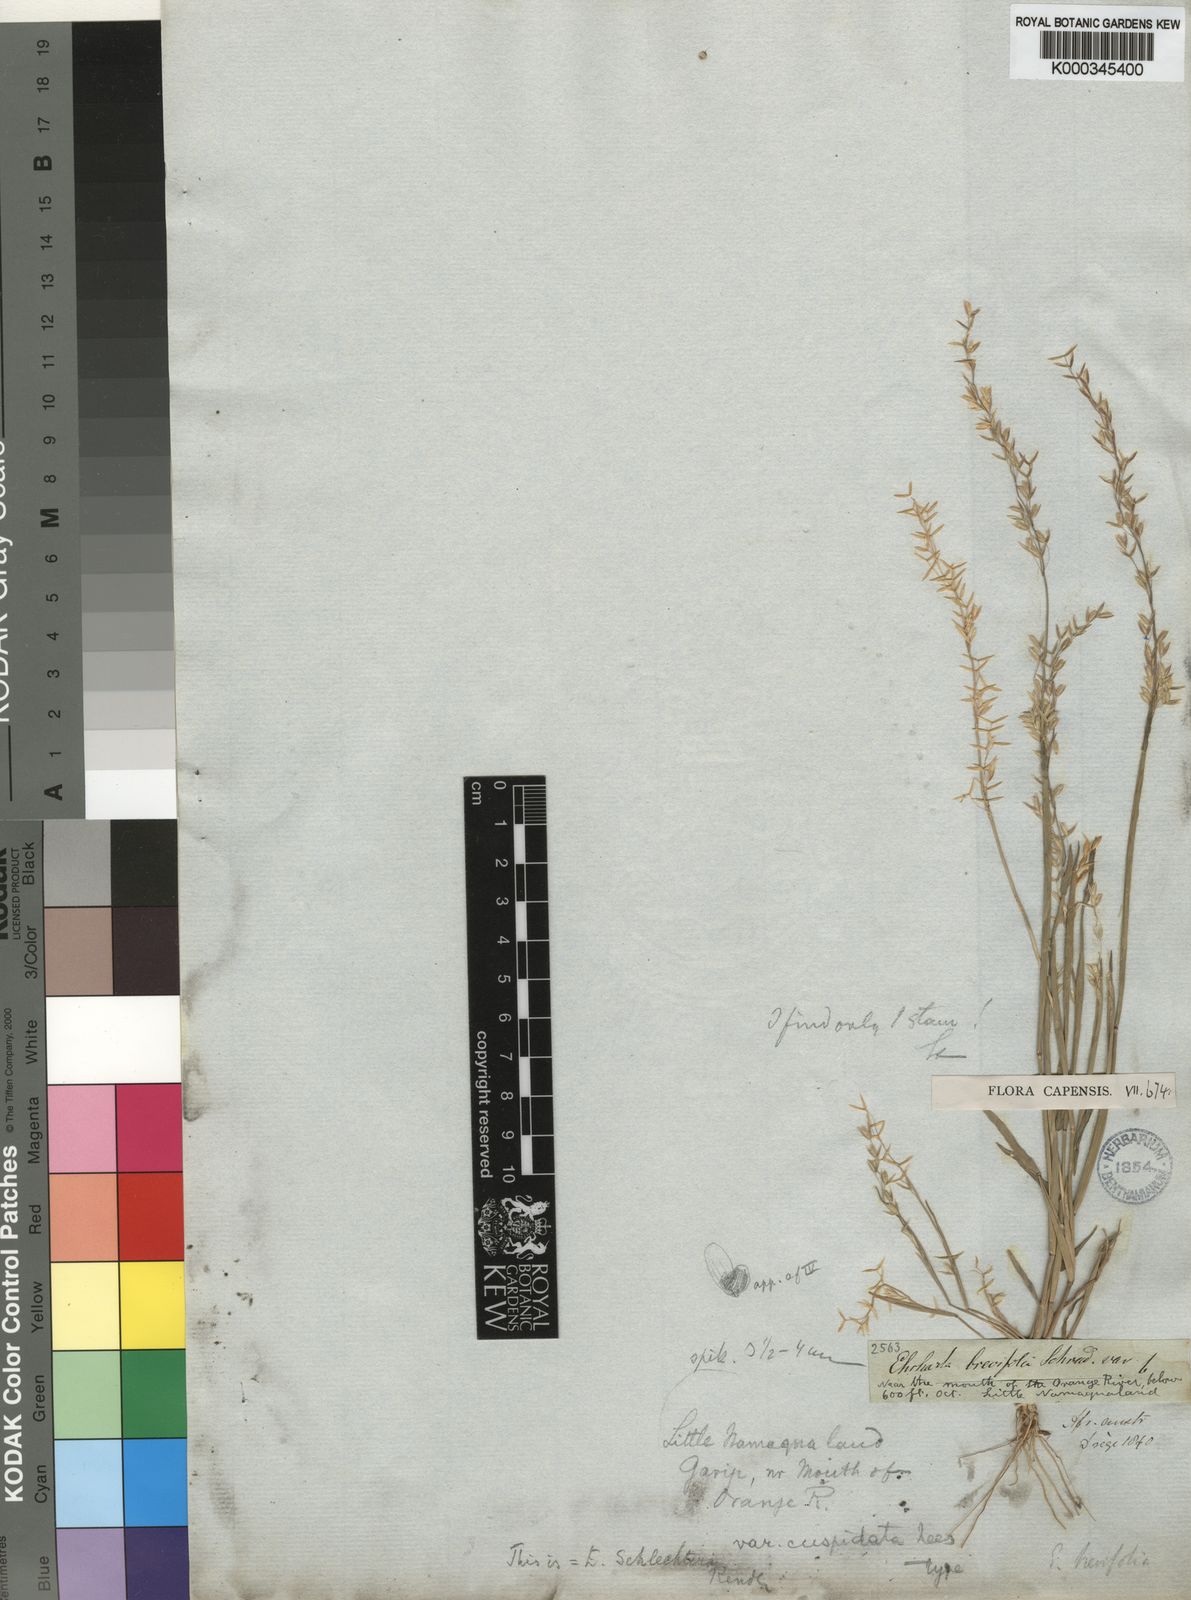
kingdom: Plantae
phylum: Tracheophyta
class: Liliopsida
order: Poales
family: Poaceae
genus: Ehrharta
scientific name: Ehrharta brevifolia
